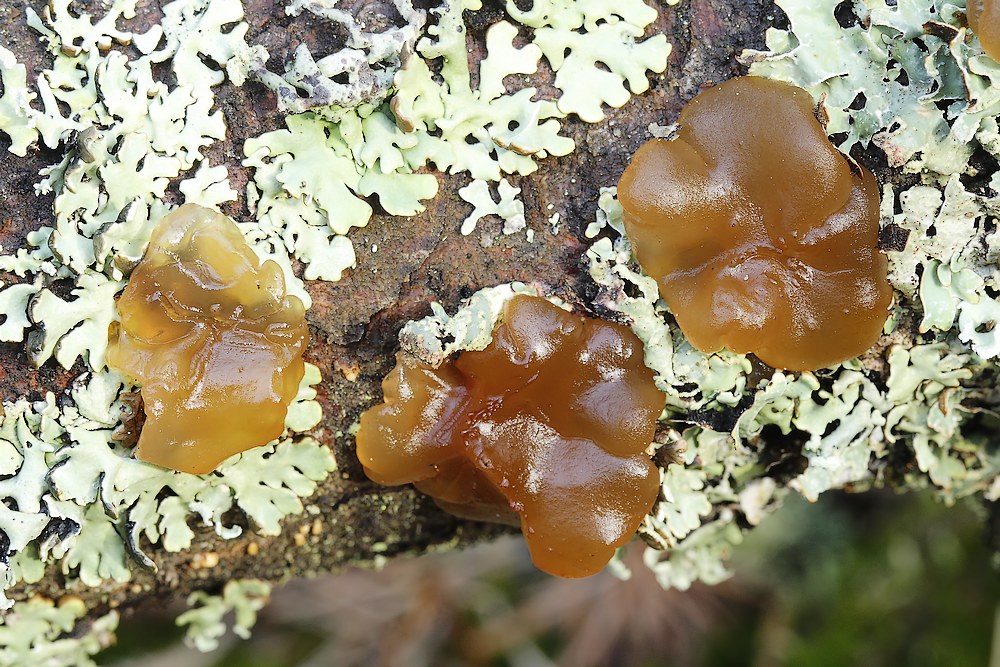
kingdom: Fungi
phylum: Basidiomycota
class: Agaricomycetes
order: Auriculariales
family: Auriculariaceae
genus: Exidia
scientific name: Exidia saccharina
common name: kandis-bævretop
